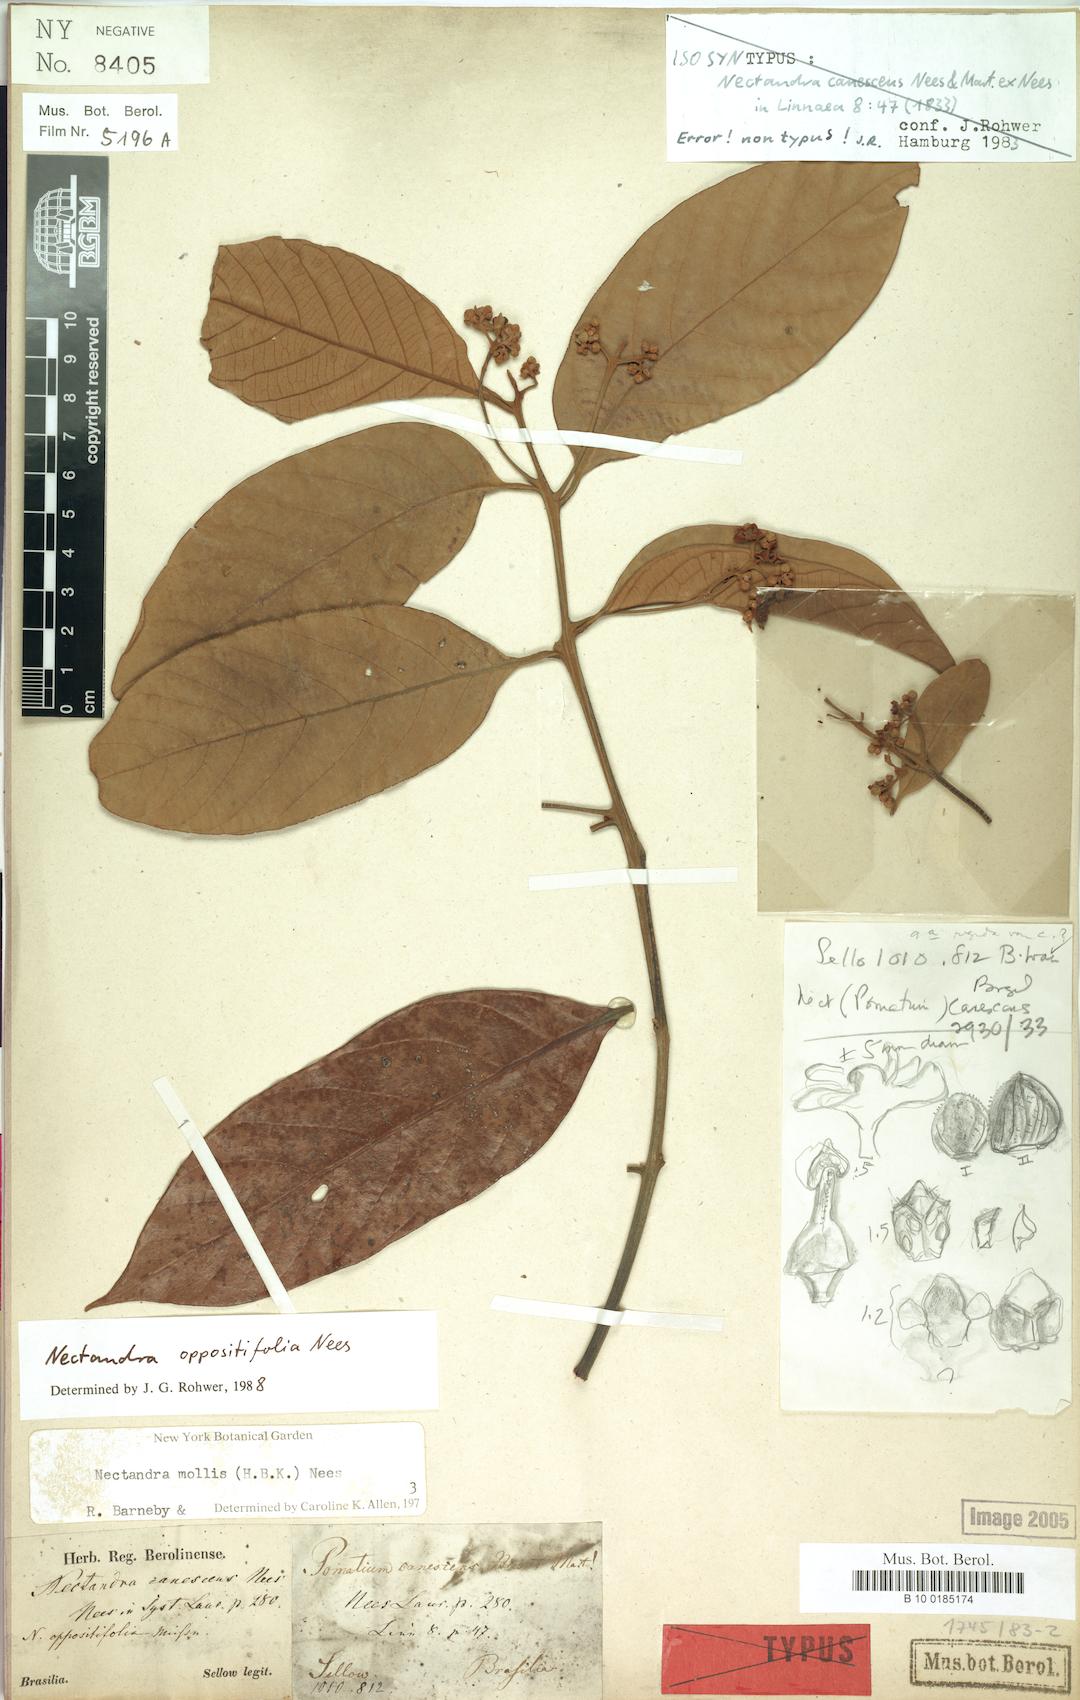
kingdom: Plantae
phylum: Tracheophyta
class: Magnoliopsida
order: Laurales
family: Lauraceae
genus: Nectandra
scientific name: Nectandra oppositifolia
